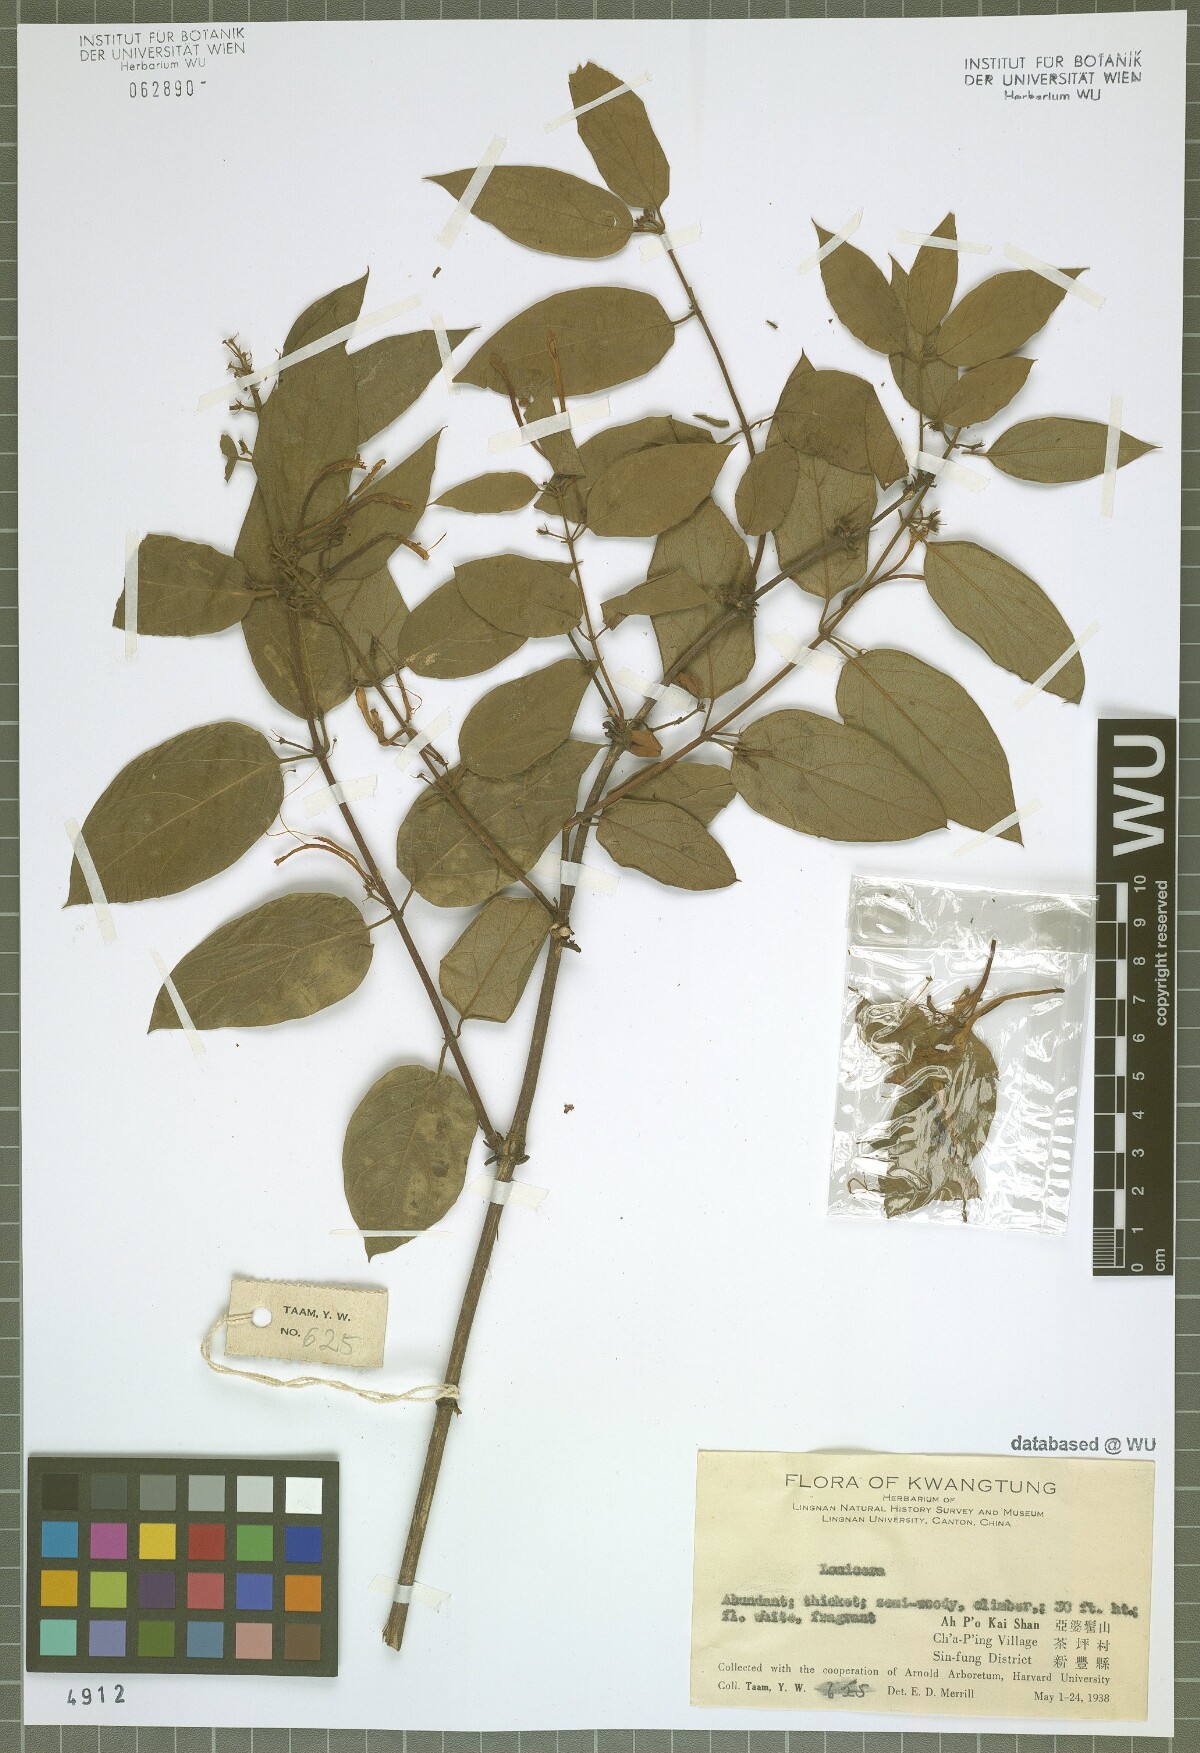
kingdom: Plantae
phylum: Tracheophyta
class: Magnoliopsida
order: Dipsacales
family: Caprifoliaceae
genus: Lonicera
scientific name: Lonicera
